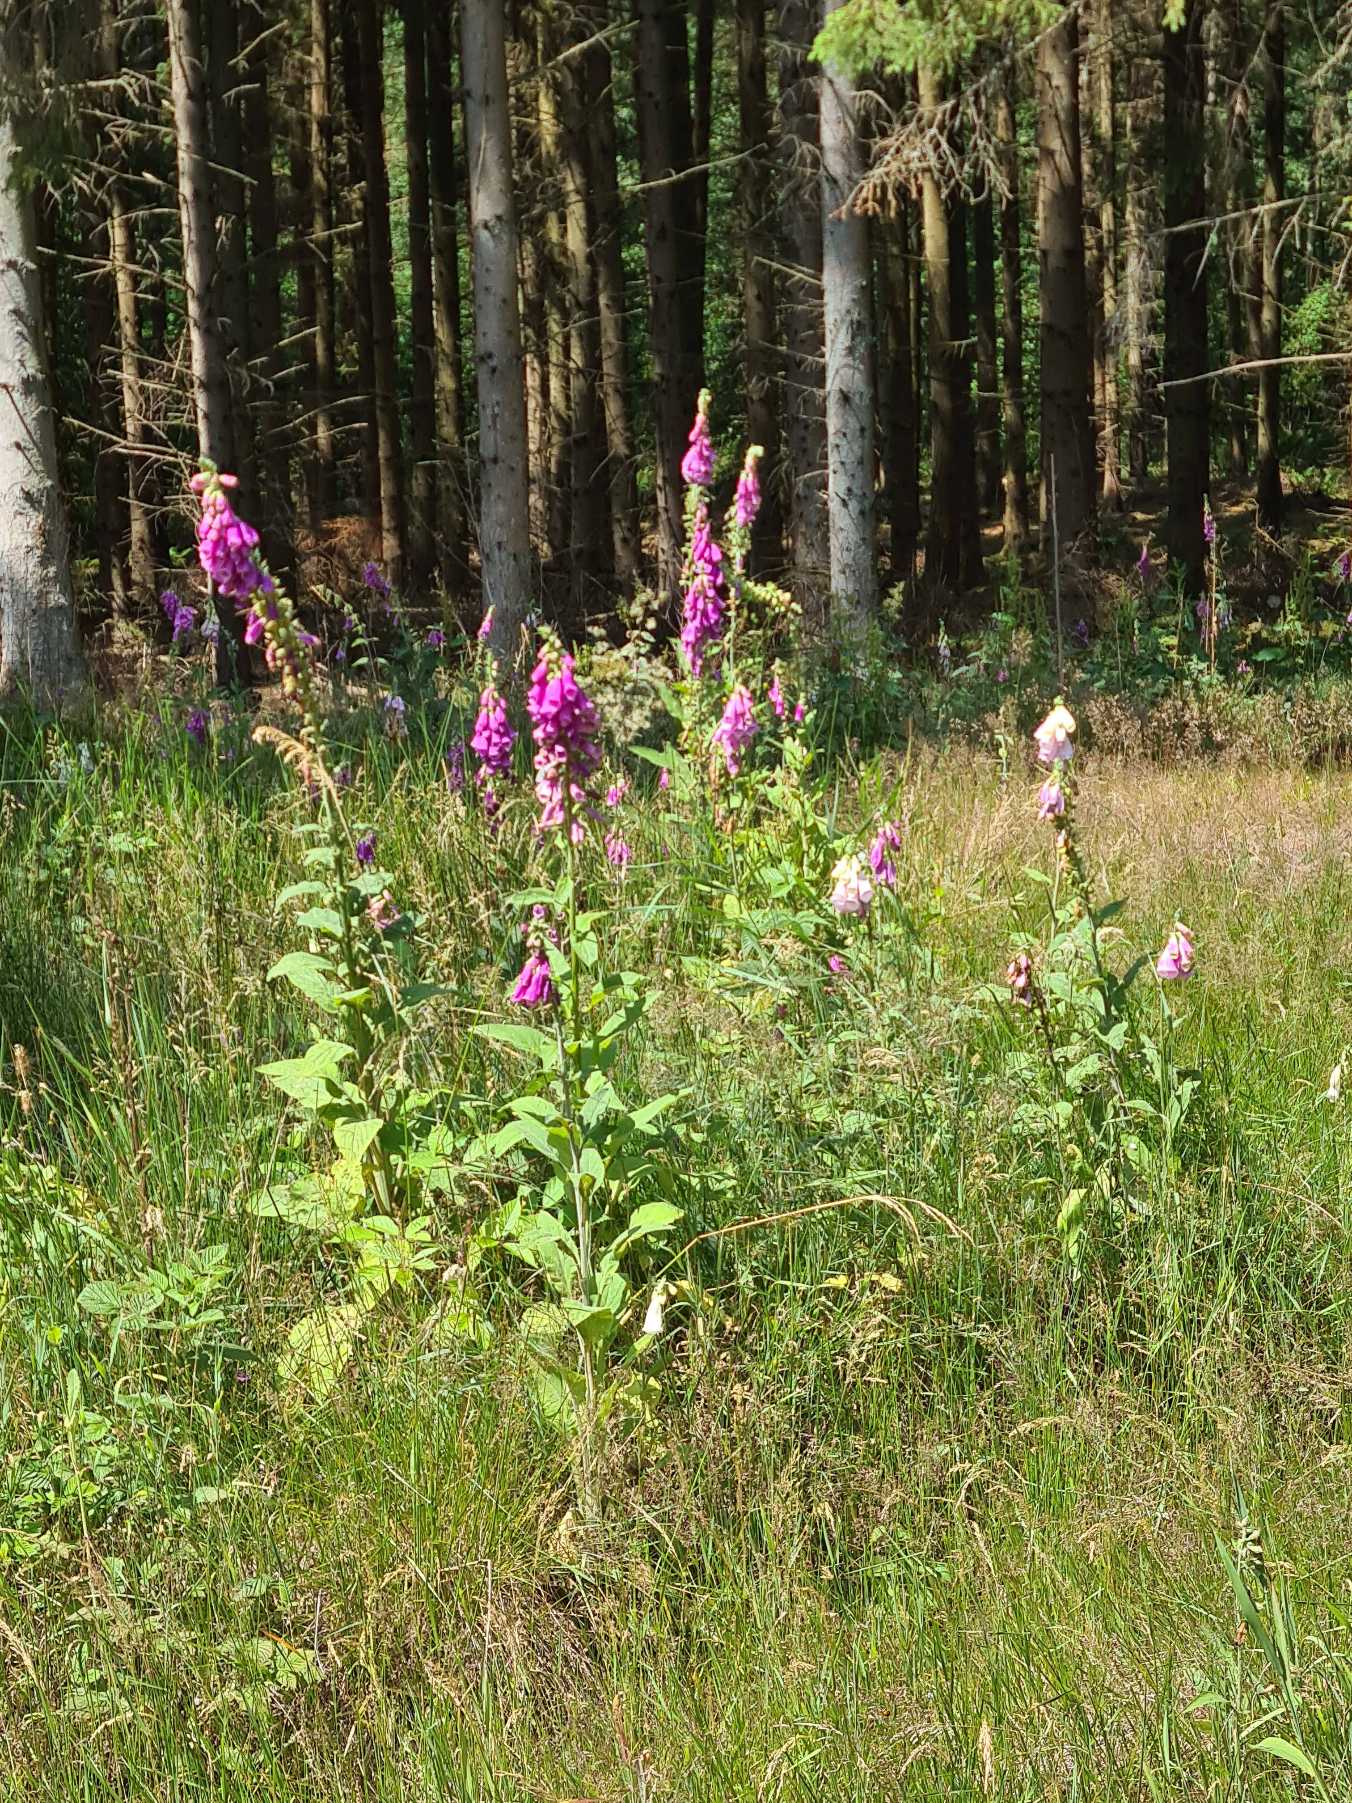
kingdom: Plantae
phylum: Tracheophyta
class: Magnoliopsida
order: Lamiales
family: Plantaginaceae
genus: Digitalis
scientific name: Digitalis purpurea
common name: Almindelig fingerbøl
